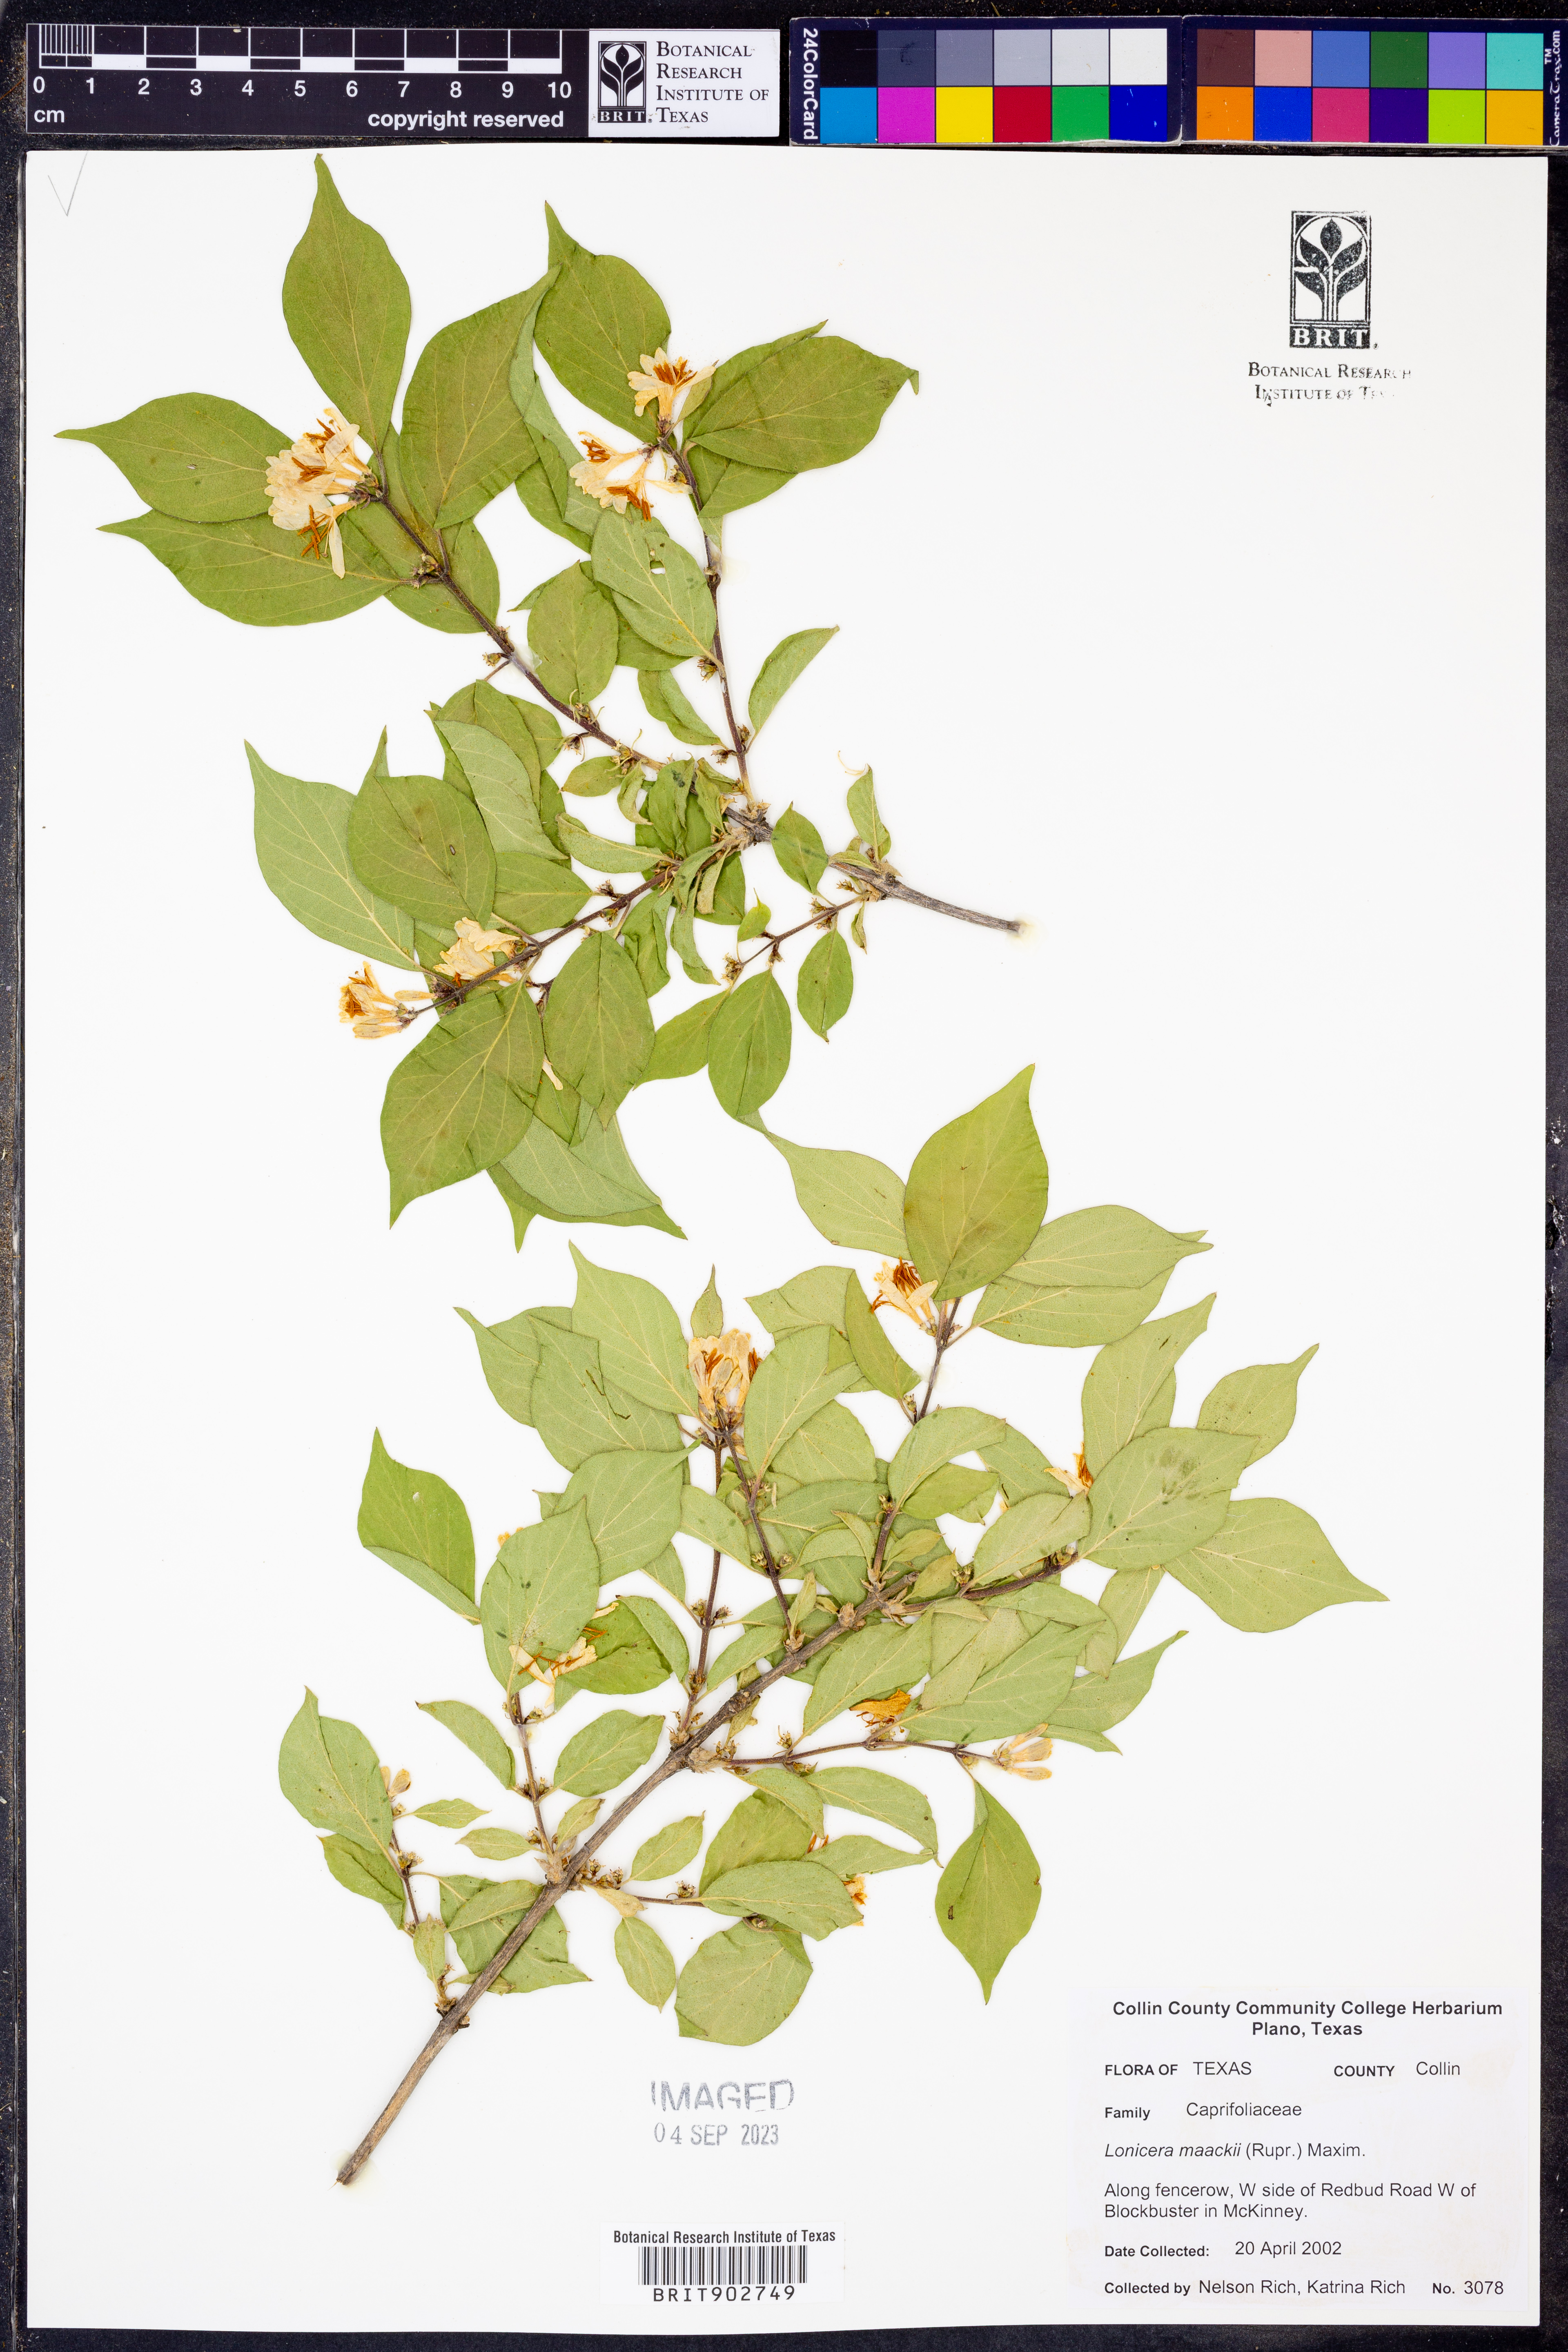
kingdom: Plantae
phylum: Tracheophyta
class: Magnoliopsida
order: Dipsacales
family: Caprifoliaceae
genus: Lonicera
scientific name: Lonicera maackii
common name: Amur honeysuckle
